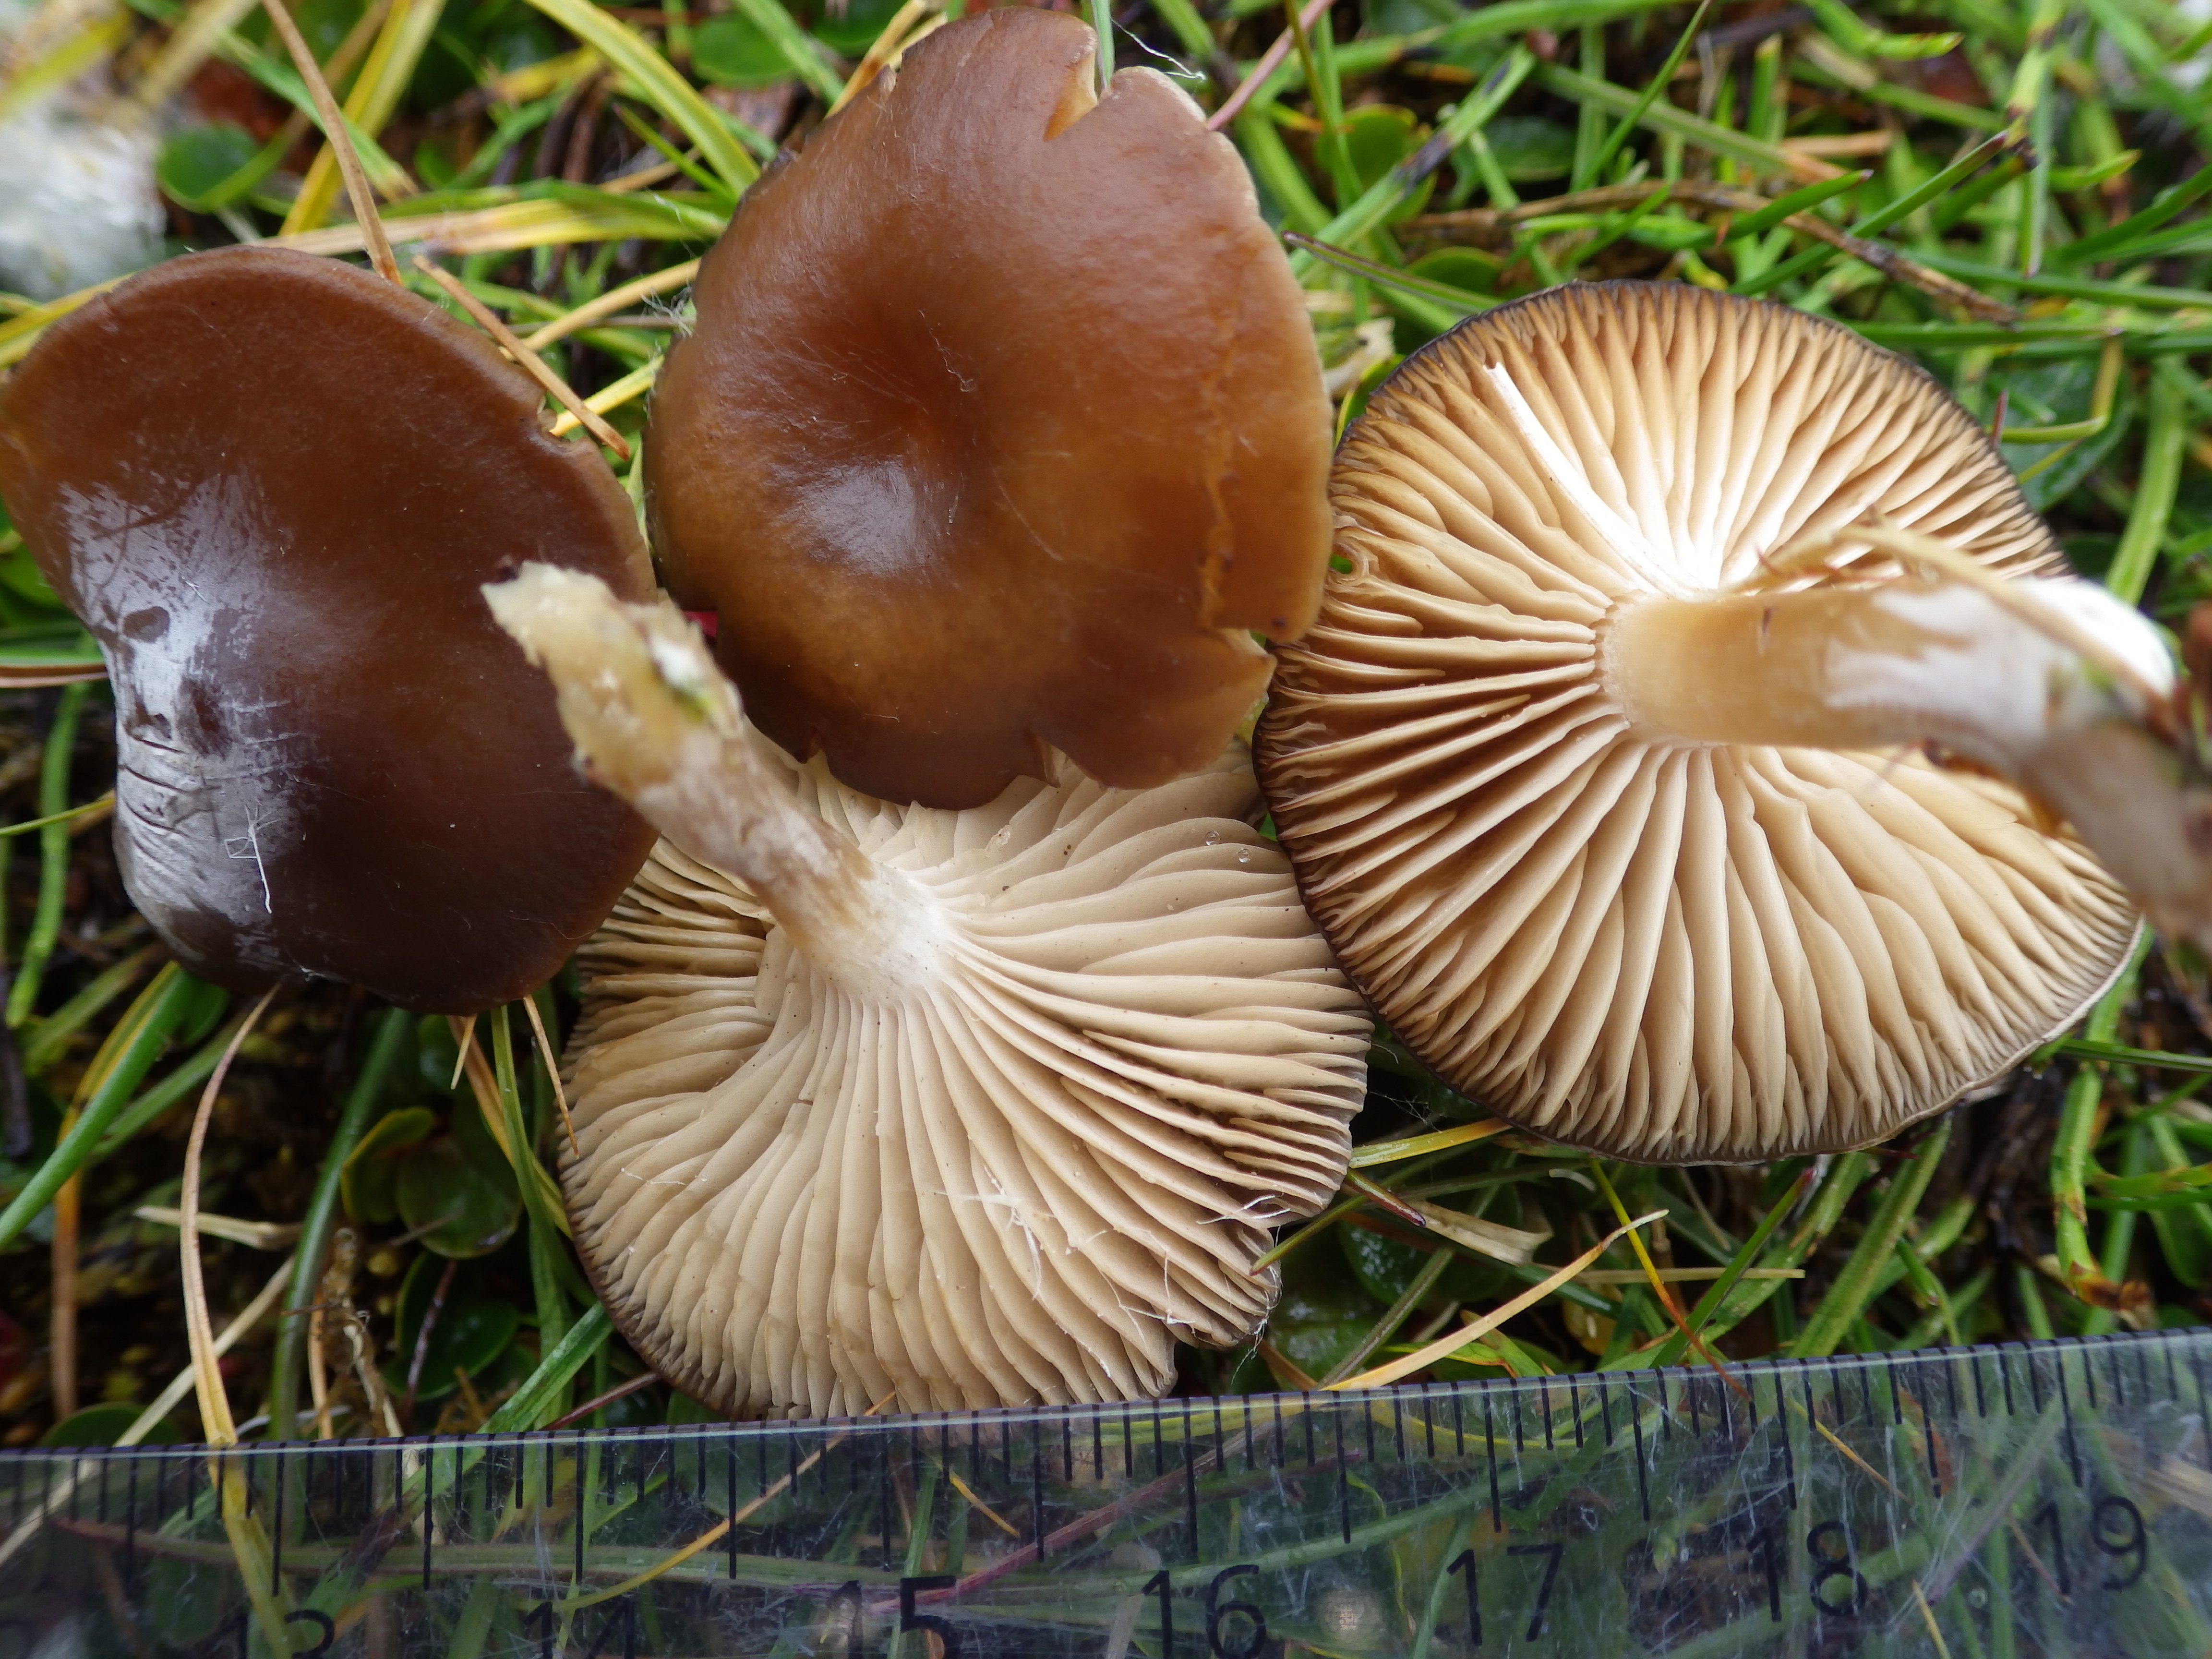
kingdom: Fungi
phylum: Basidiomycota
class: Agaricomycetes
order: Agaricales
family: Tricholomataceae
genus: Clitocybe
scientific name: Clitocybe
